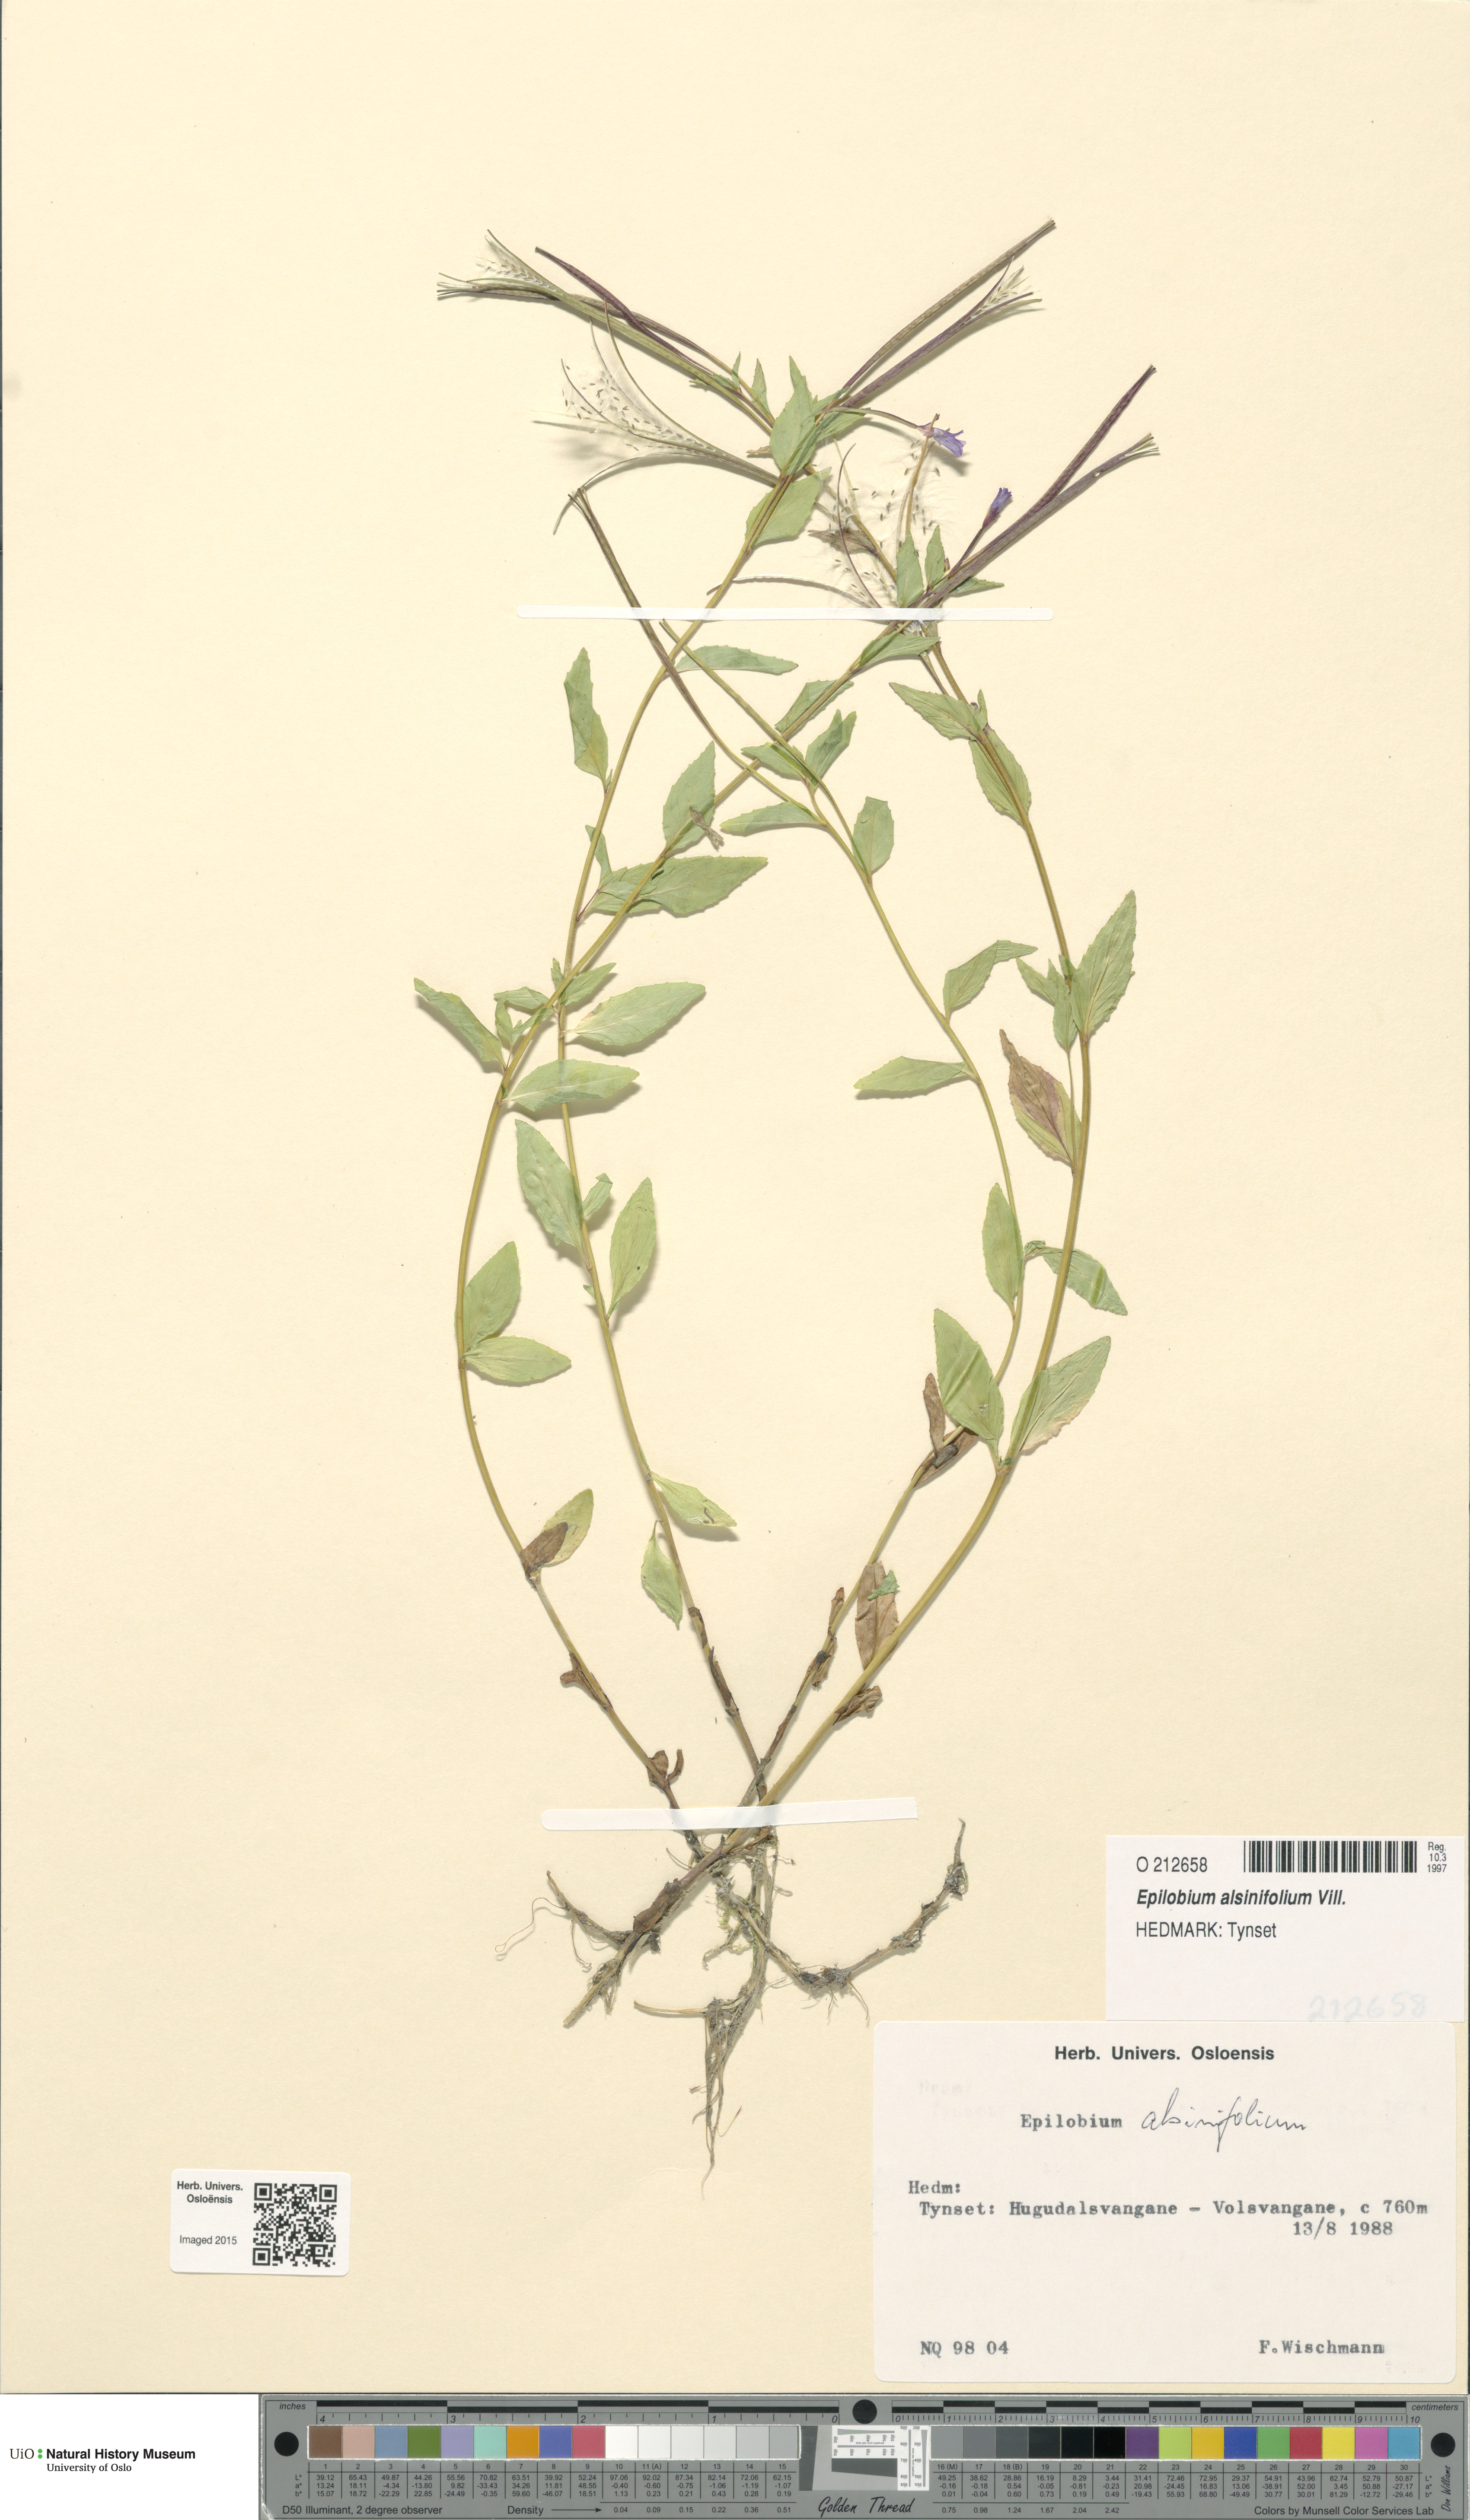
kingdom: Plantae
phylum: Tracheophyta
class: Magnoliopsida
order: Myrtales
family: Onagraceae
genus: Epilobium
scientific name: Epilobium alsinifolium
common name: Chickweed willowherb
